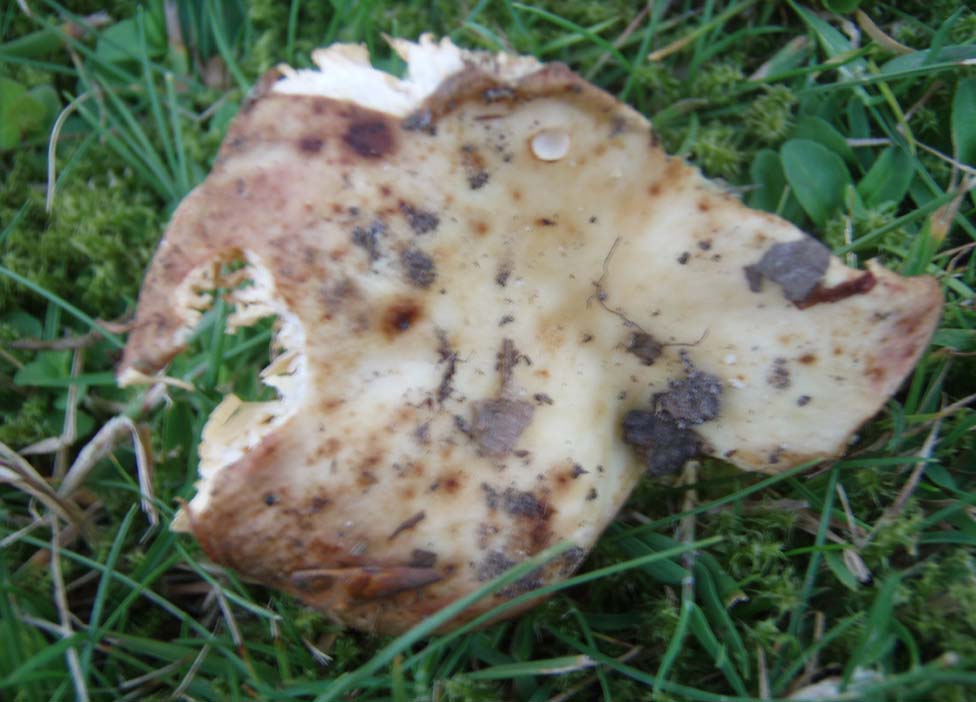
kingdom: Fungi
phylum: Basidiomycota
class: Agaricomycetes
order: Russulales
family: Russulaceae
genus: Russula
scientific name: Russula maculata
